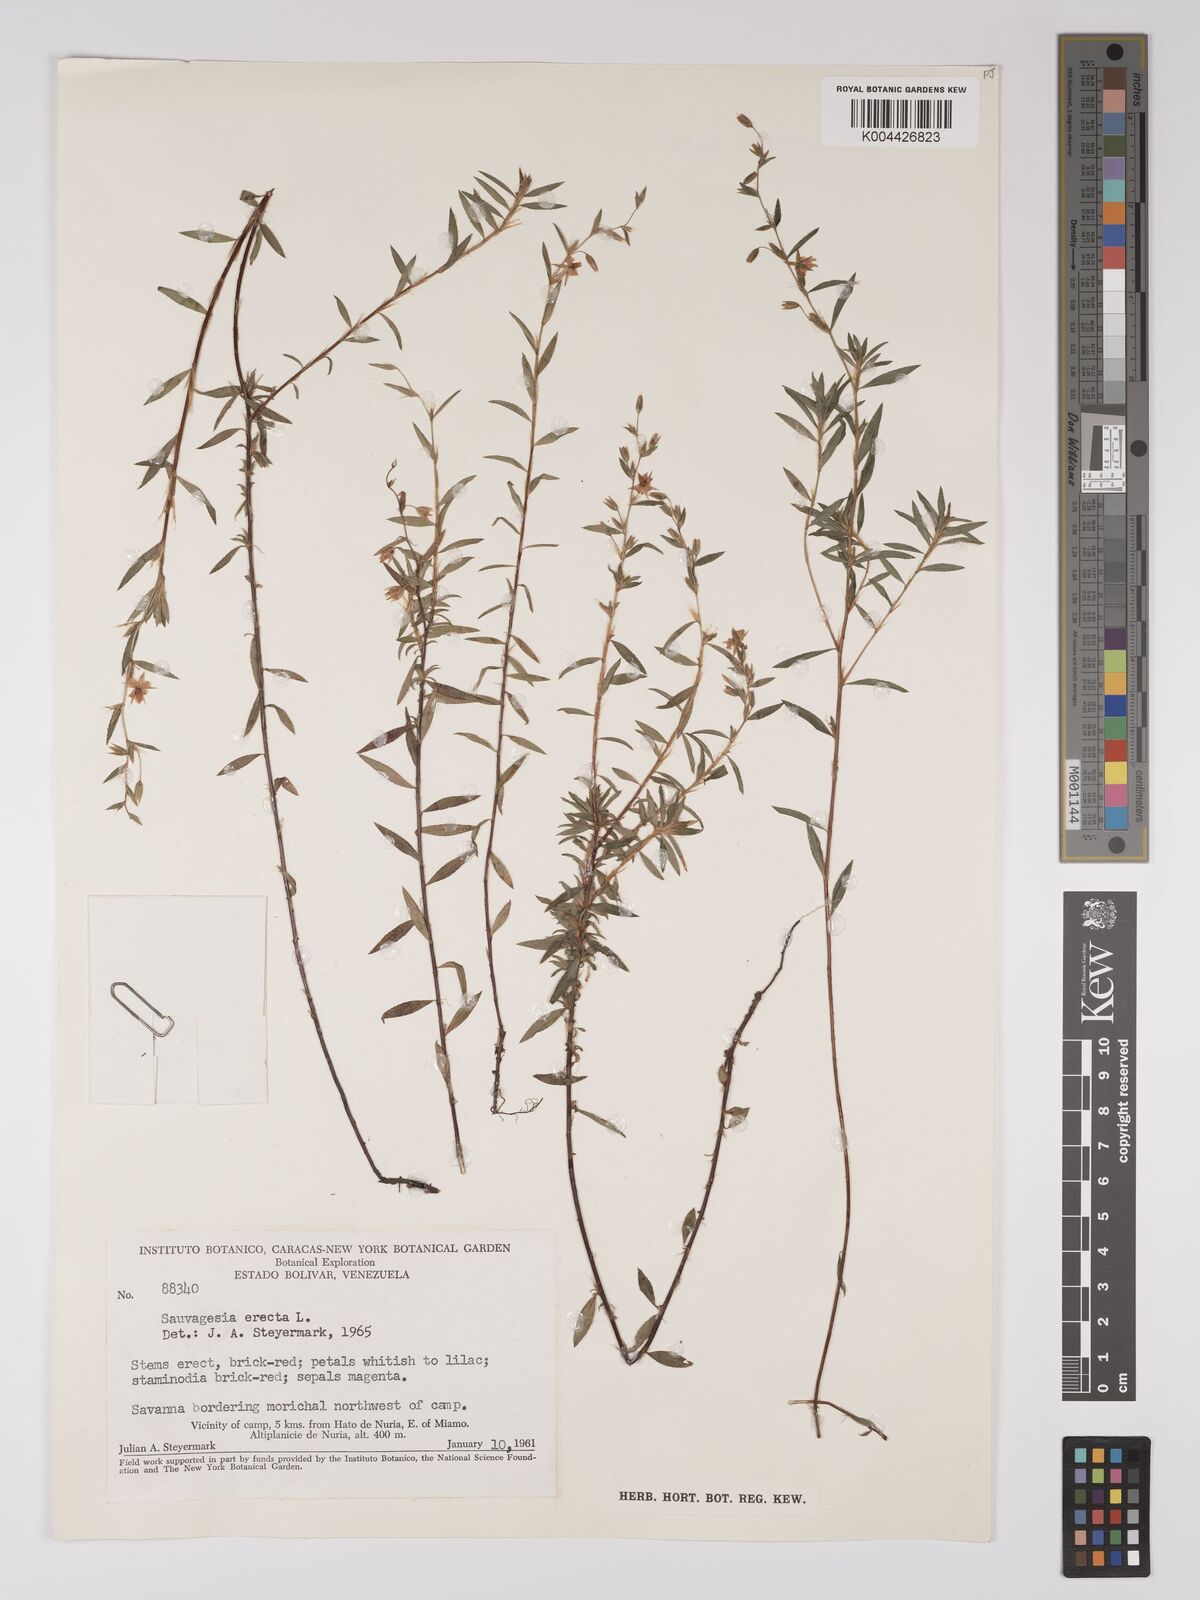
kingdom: Plantae
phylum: Tracheophyta
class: Magnoliopsida
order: Malpighiales
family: Ochnaceae
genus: Sauvagesia
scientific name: Sauvagesia erecta
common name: Creole tea
